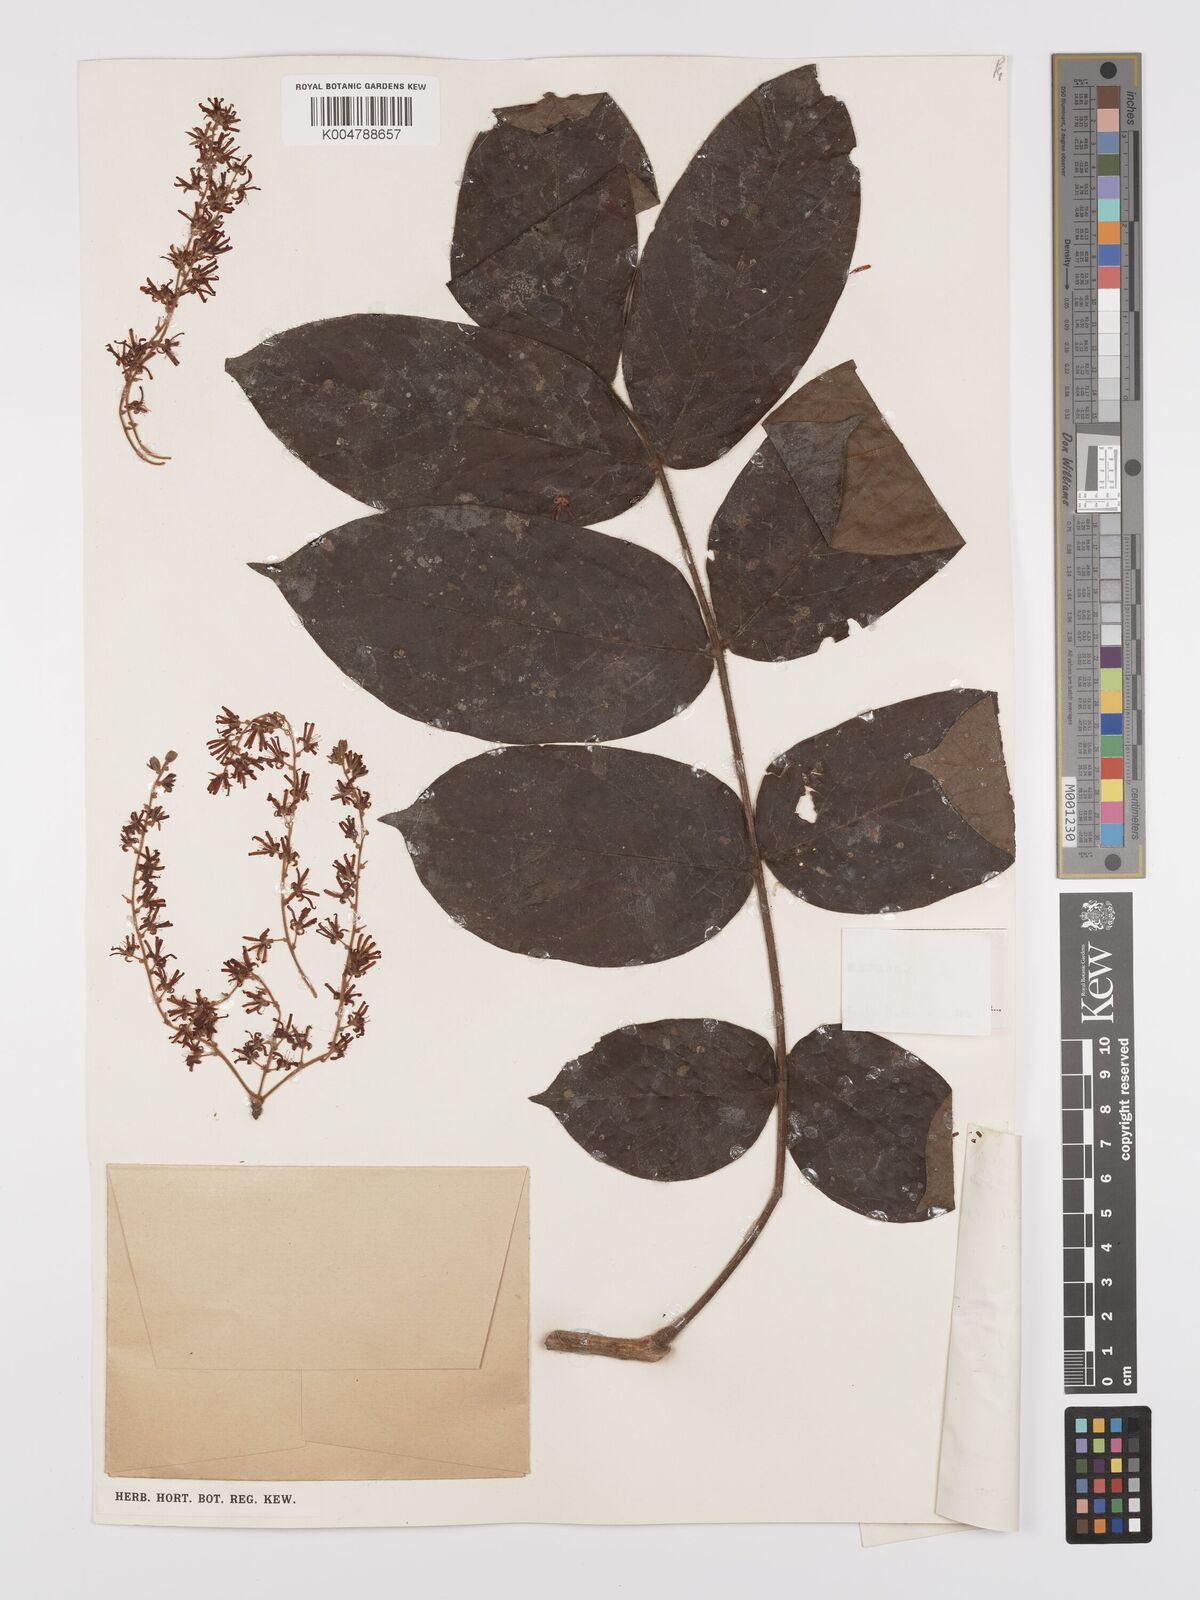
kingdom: Plantae
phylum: Tracheophyta
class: Magnoliopsida
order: Oxalidales
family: Connaraceae
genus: Cnestis
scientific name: Cnestis corniculata
